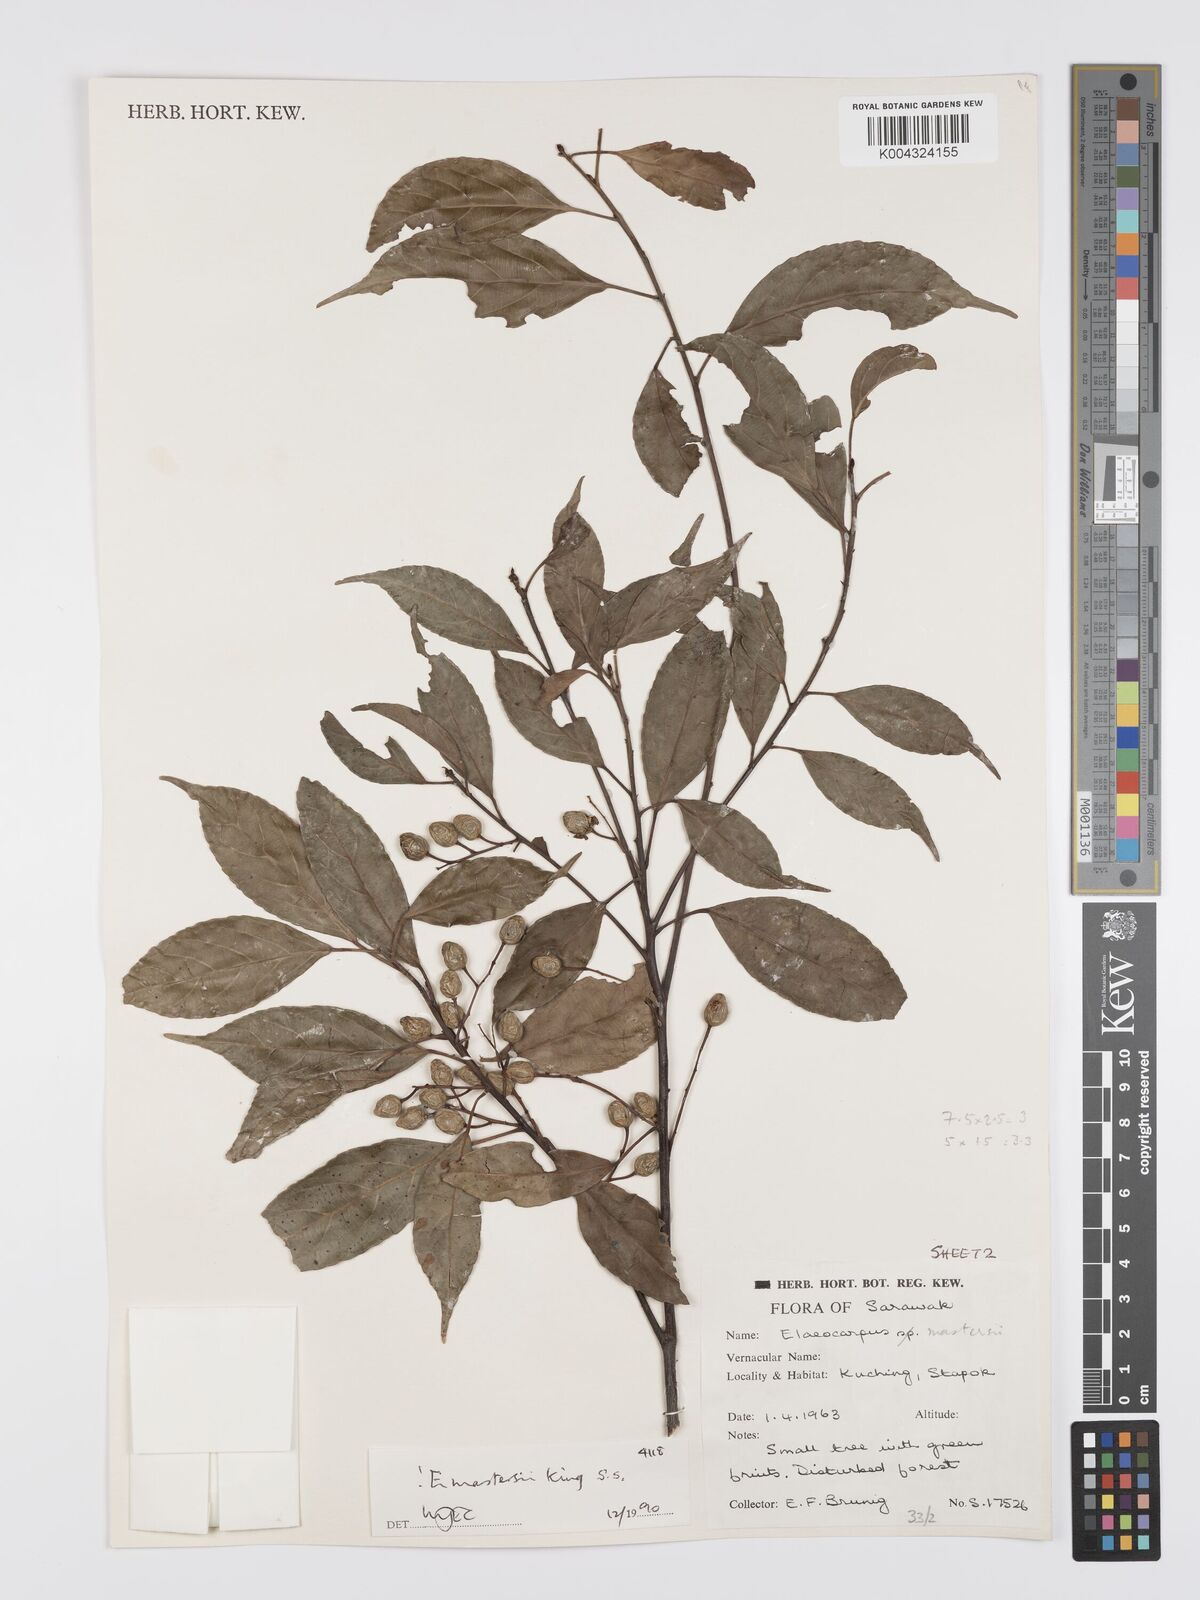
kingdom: Plantae
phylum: Tracheophyta
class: Magnoliopsida
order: Oxalidales
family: Elaeocarpaceae
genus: Elaeocarpus
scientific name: Elaeocarpus mastersii
